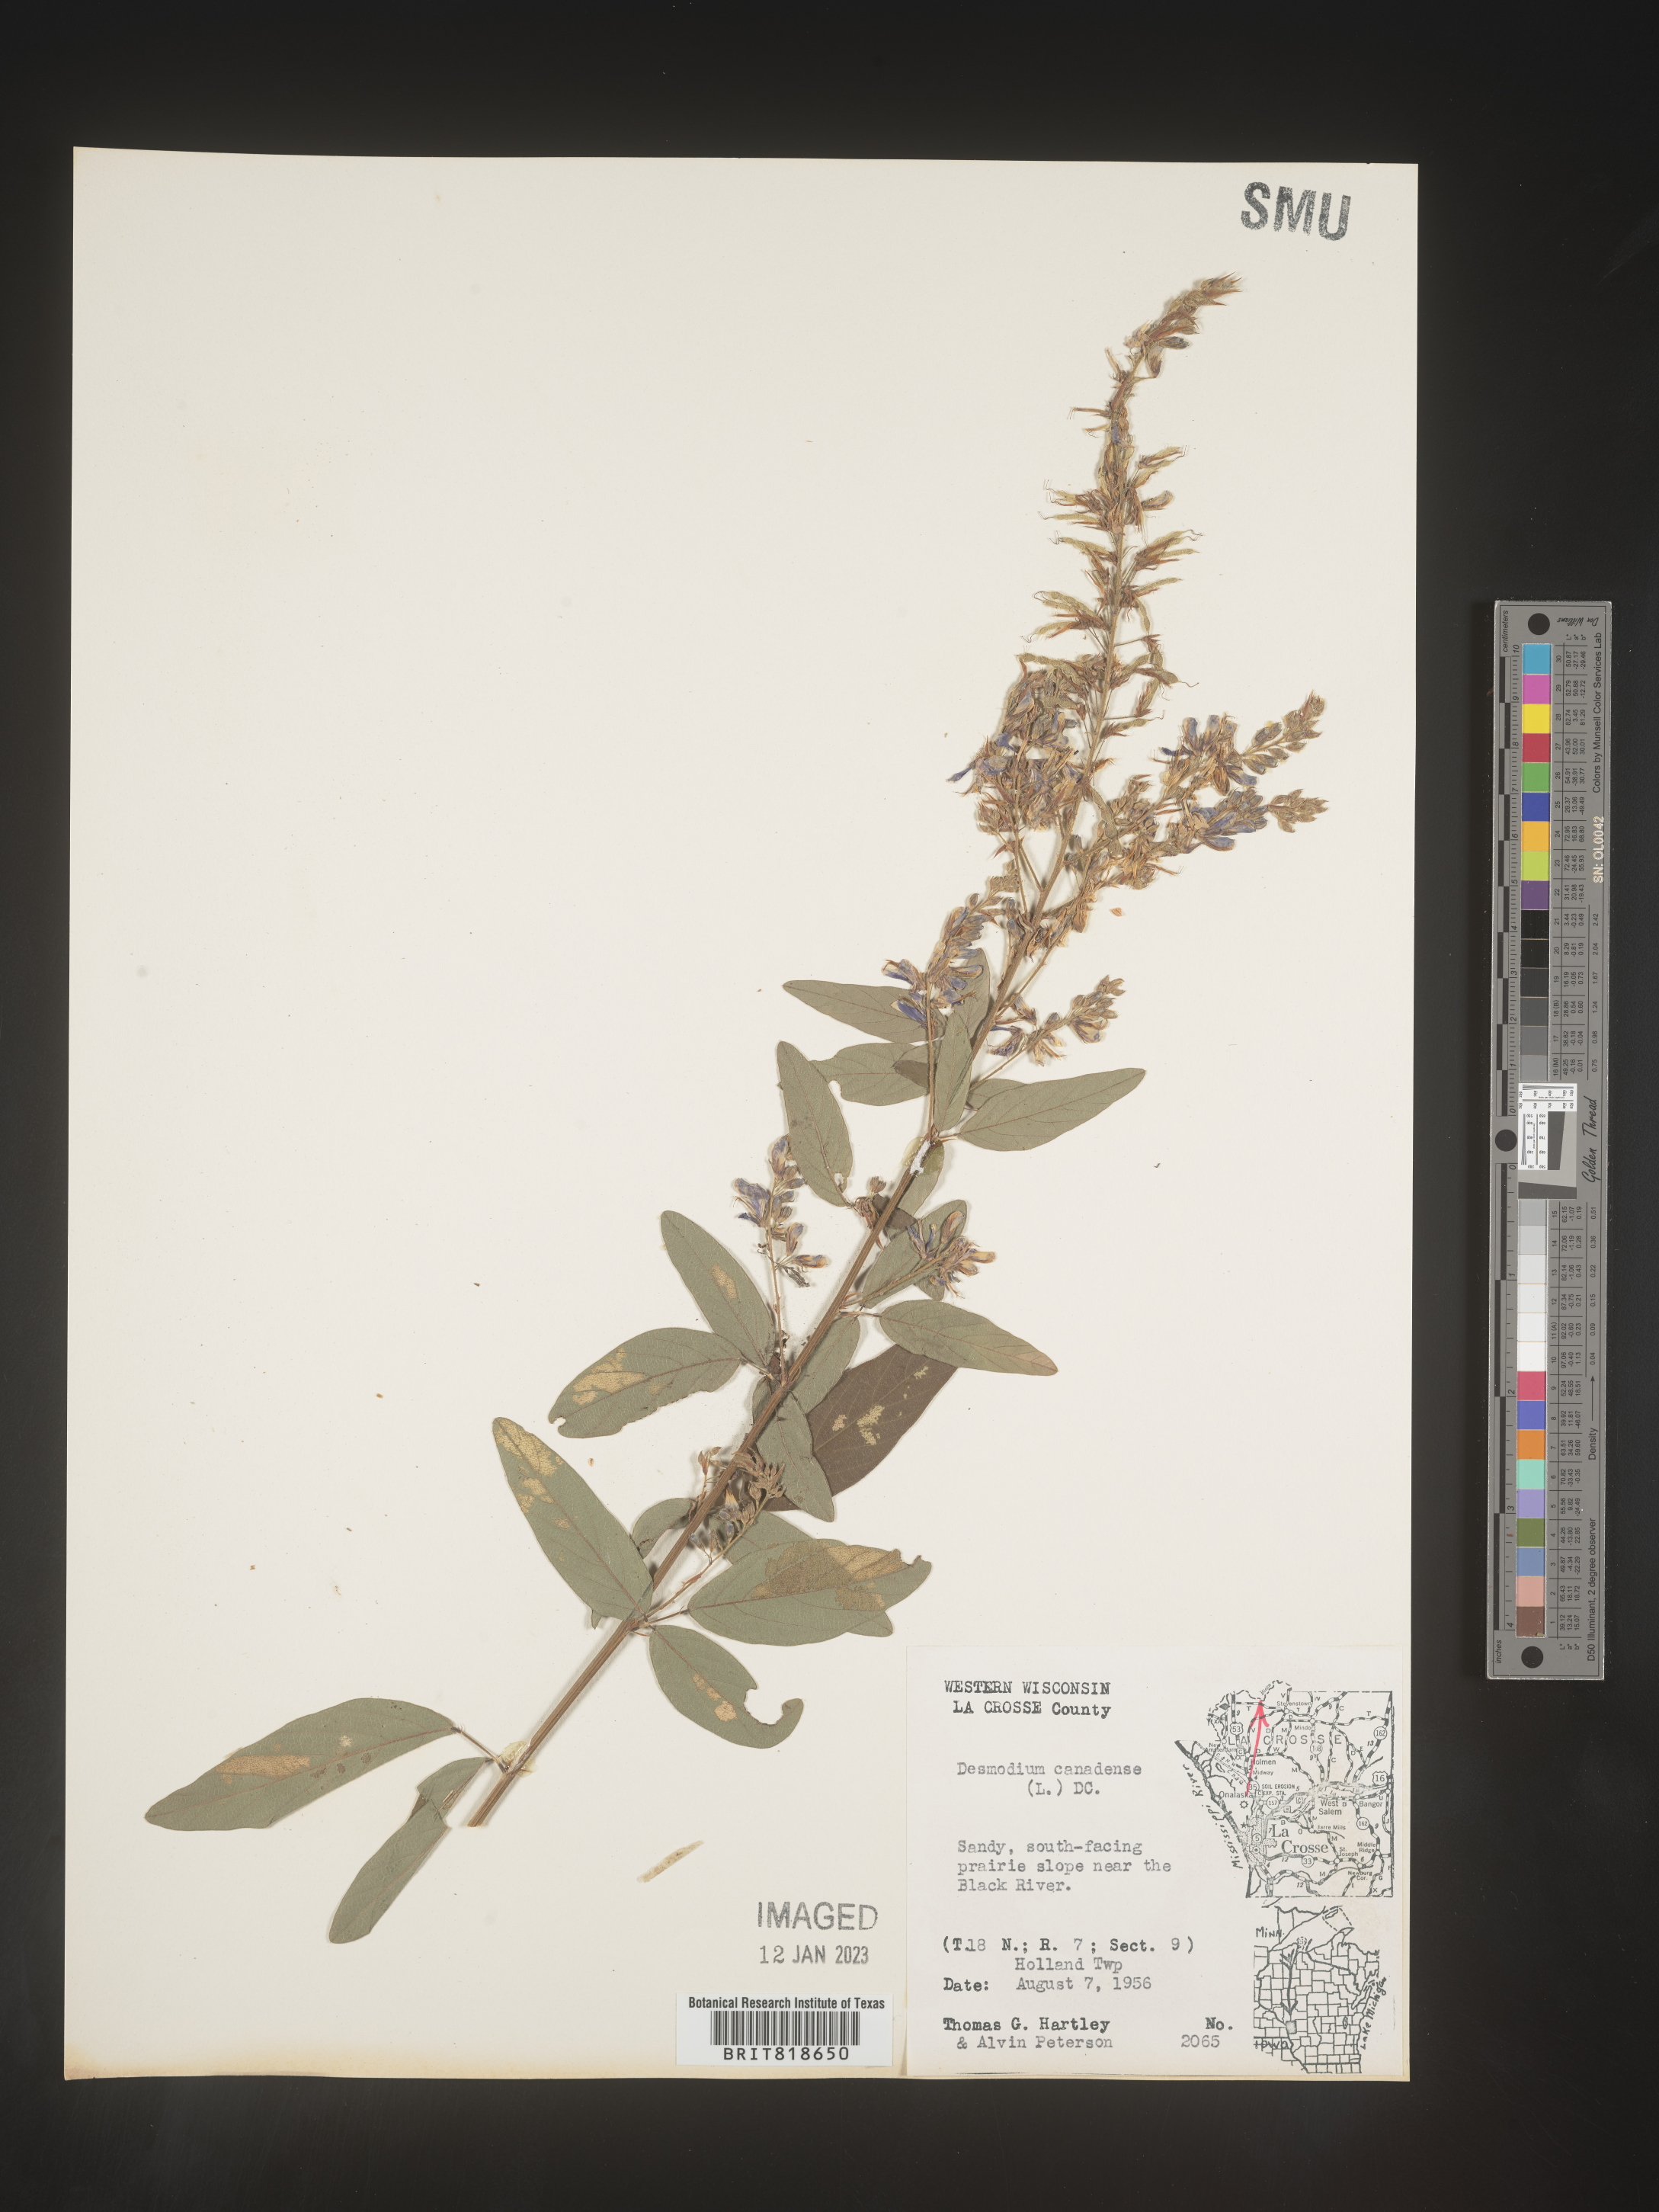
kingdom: Plantae
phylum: Tracheophyta
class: Magnoliopsida
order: Fabales
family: Fabaceae
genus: Desmodium
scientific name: Desmodium canadense
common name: Canada tick-trefoil
